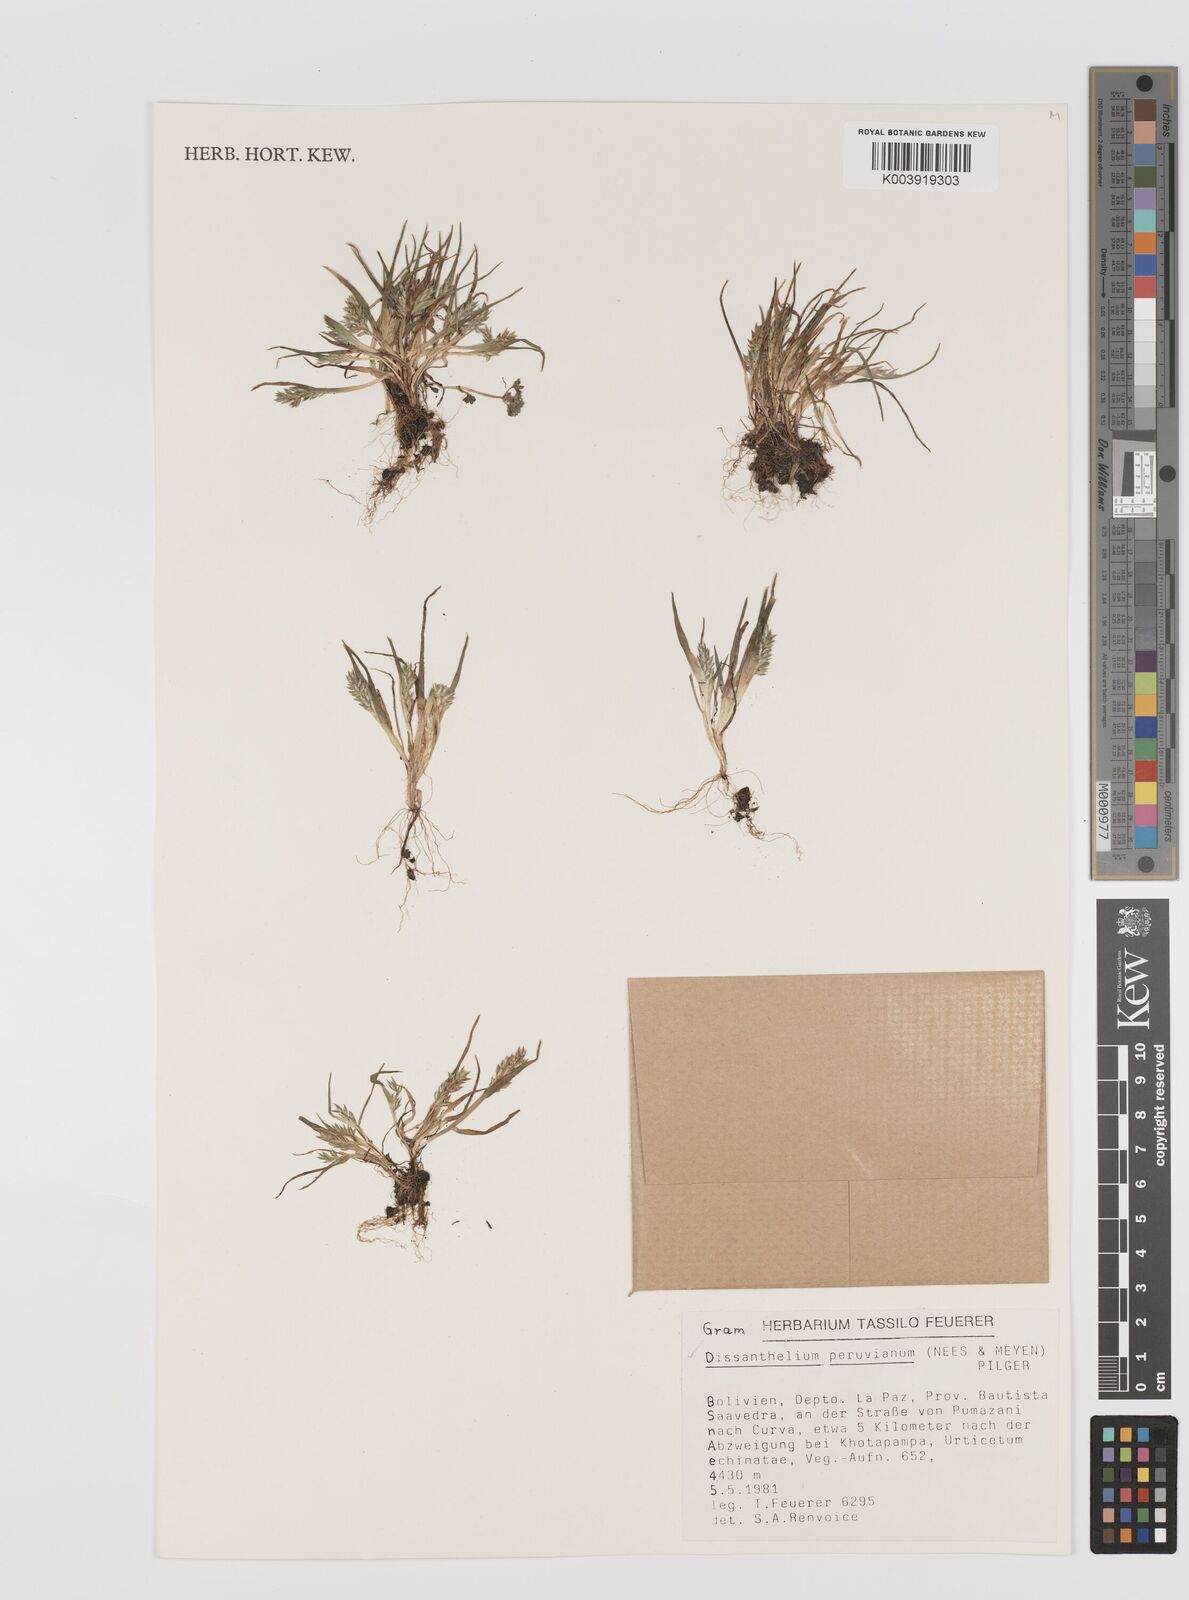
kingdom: Plantae
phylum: Tracheophyta
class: Liliopsida
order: Poales
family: Poaceae
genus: Poa
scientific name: Poa serpana
